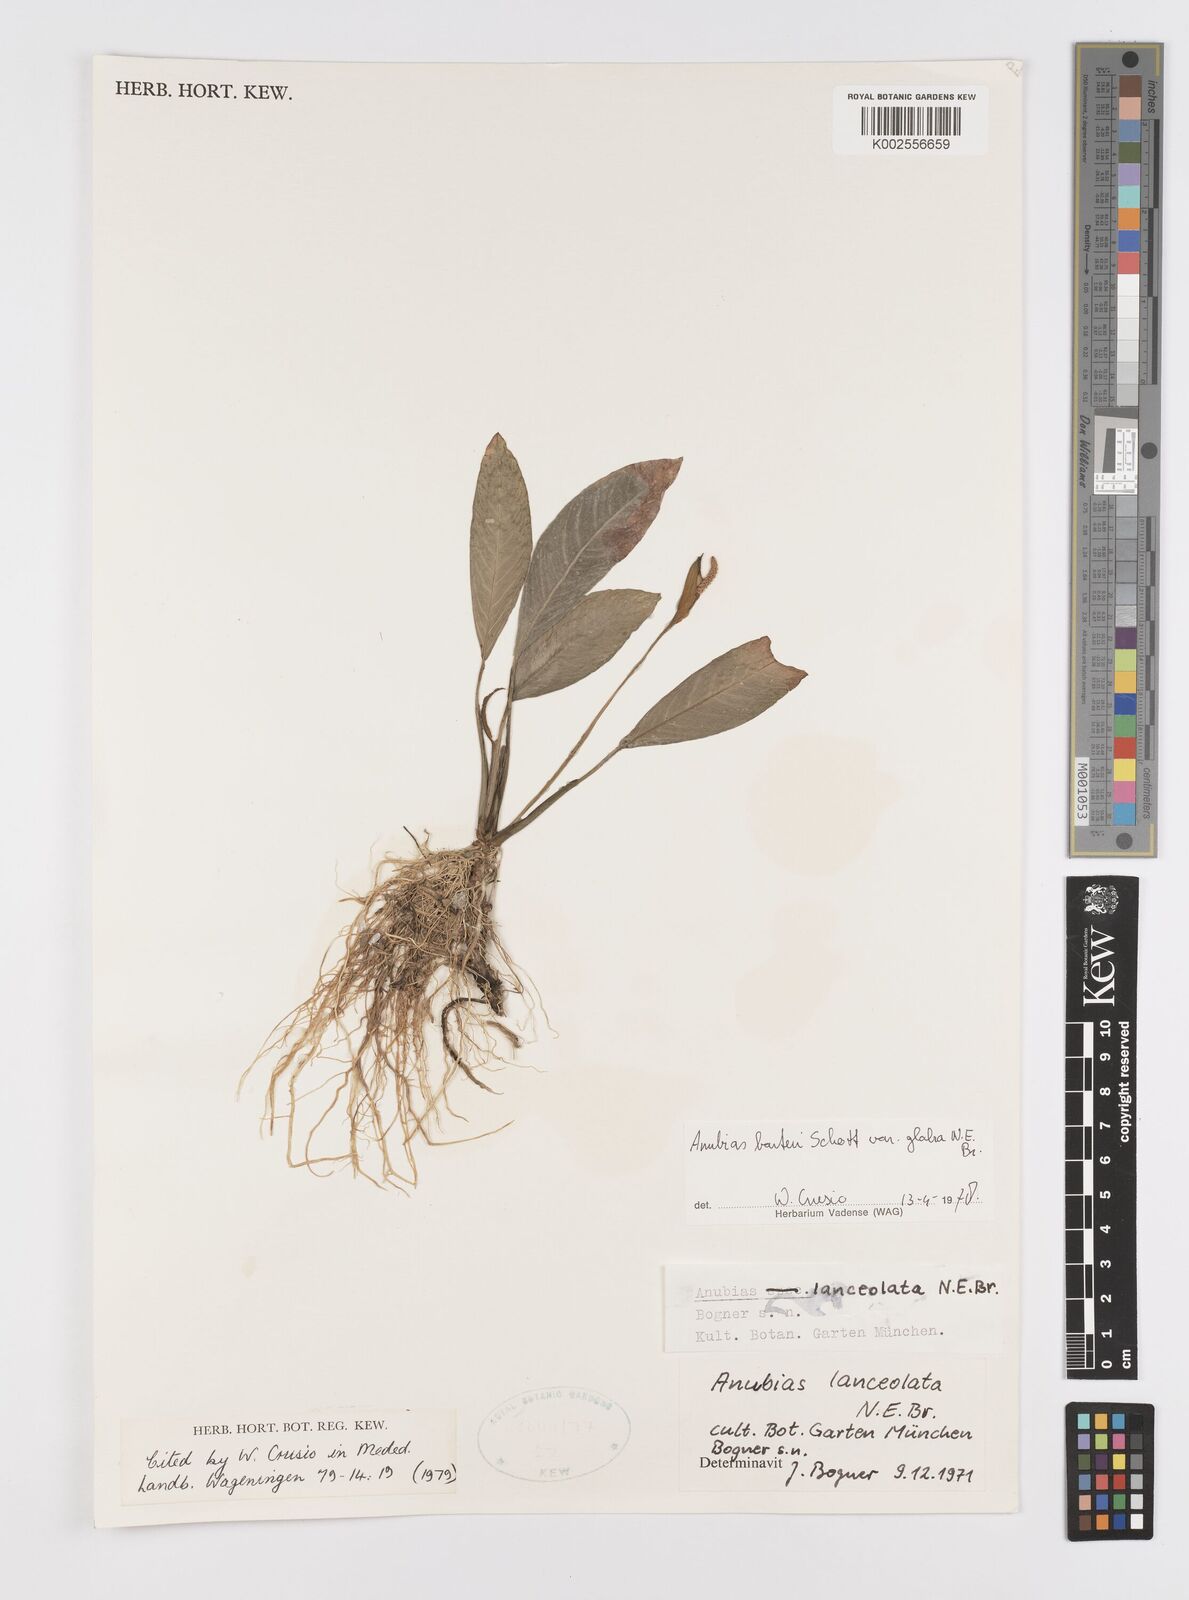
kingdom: Plantae
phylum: Tracheophyta
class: Liliopsida
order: Alismatales
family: Araceae
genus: Anubias
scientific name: Anubias barteri
